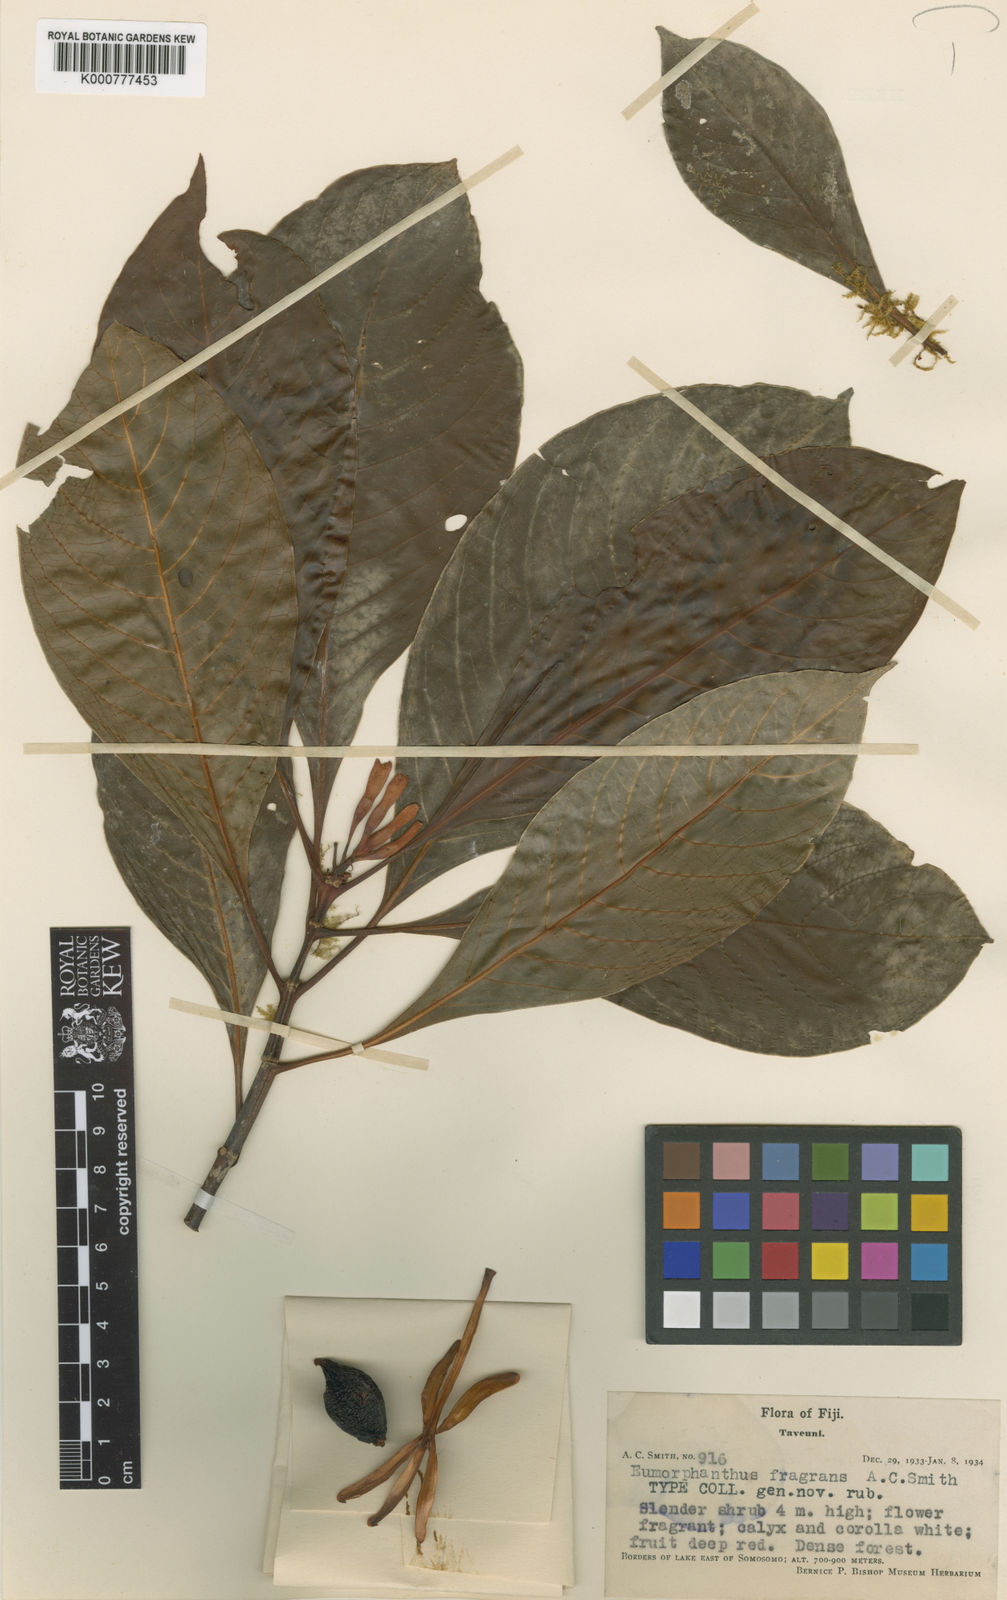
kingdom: Plantae
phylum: Tracheophyta
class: Magnoliopsida
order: Gentianales
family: Rubiaceae
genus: Psychotria
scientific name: Psychotria eumorphanthus
